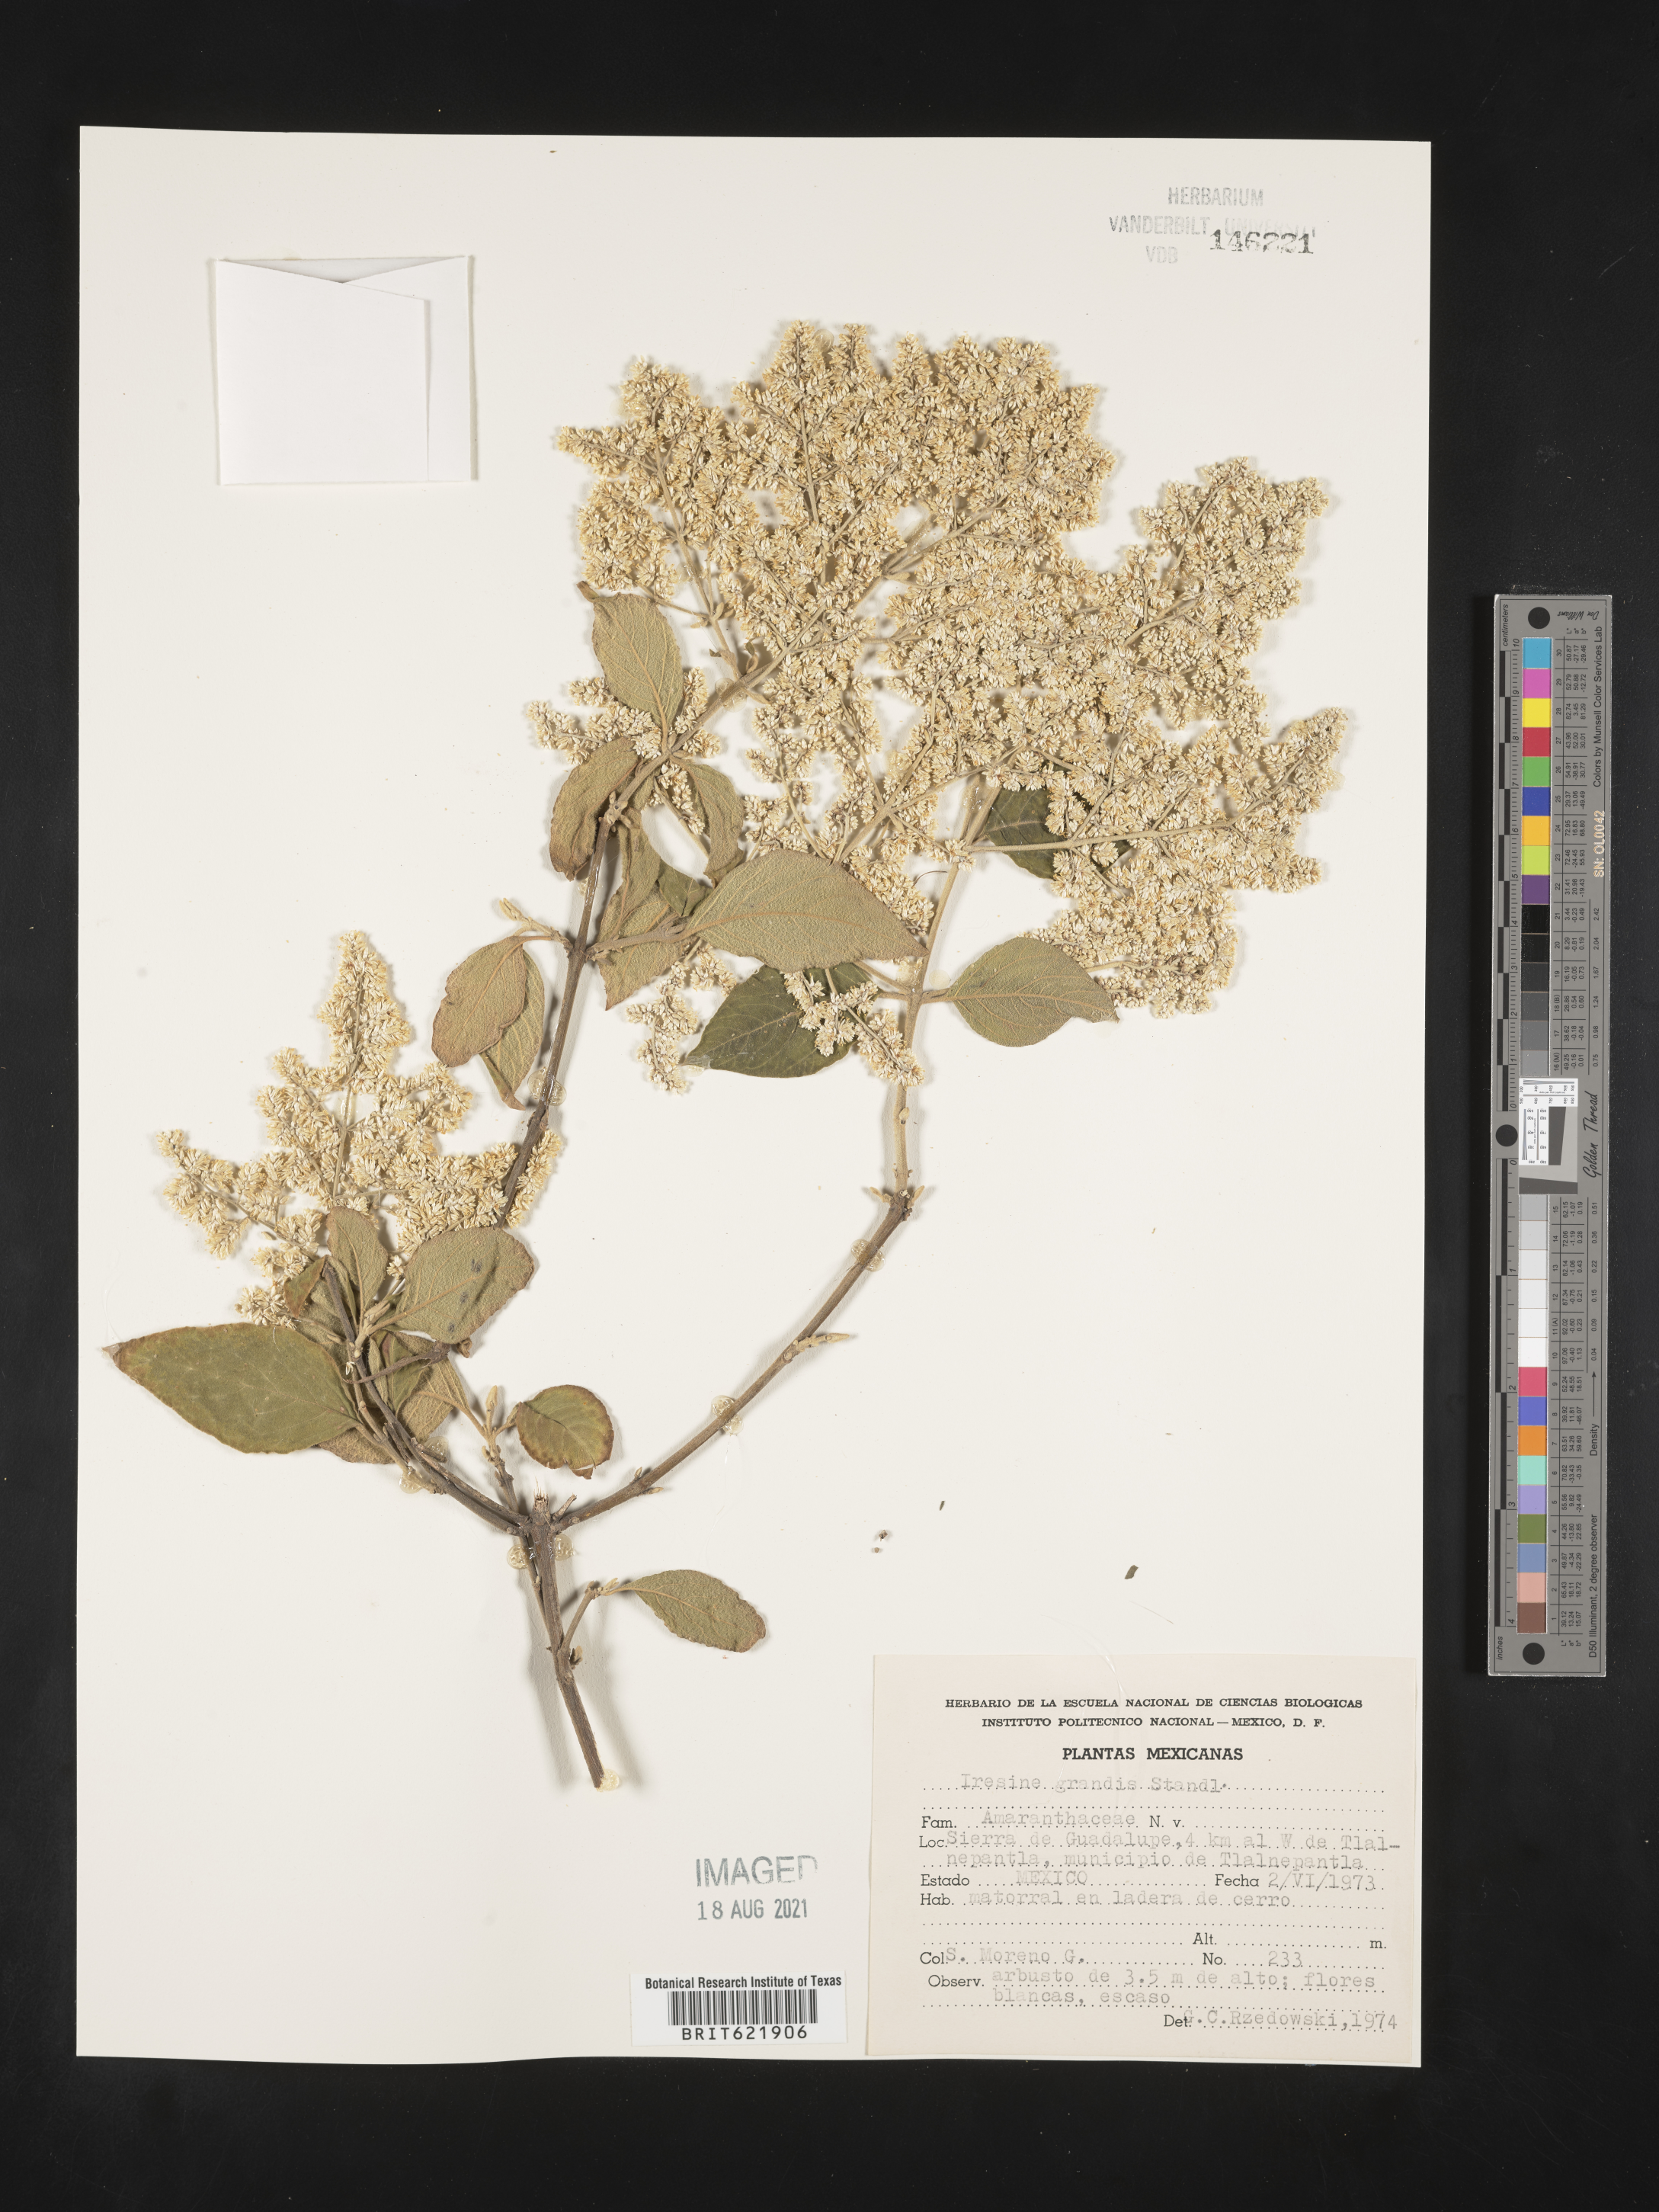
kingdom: Plantae
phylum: Tracheophyta
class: Magnoliopsida
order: Caryophyllales
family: Amaranthaceae
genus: Iresine
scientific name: Iresine
